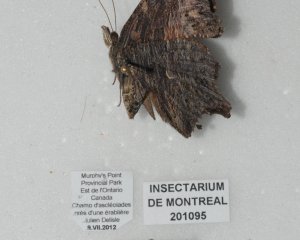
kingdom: Animalia
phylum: Arthropoda
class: Insecta
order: Lepidoptera
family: Nymphalidae
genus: Polygonia
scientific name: Polygonia progne
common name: Gray Comma
